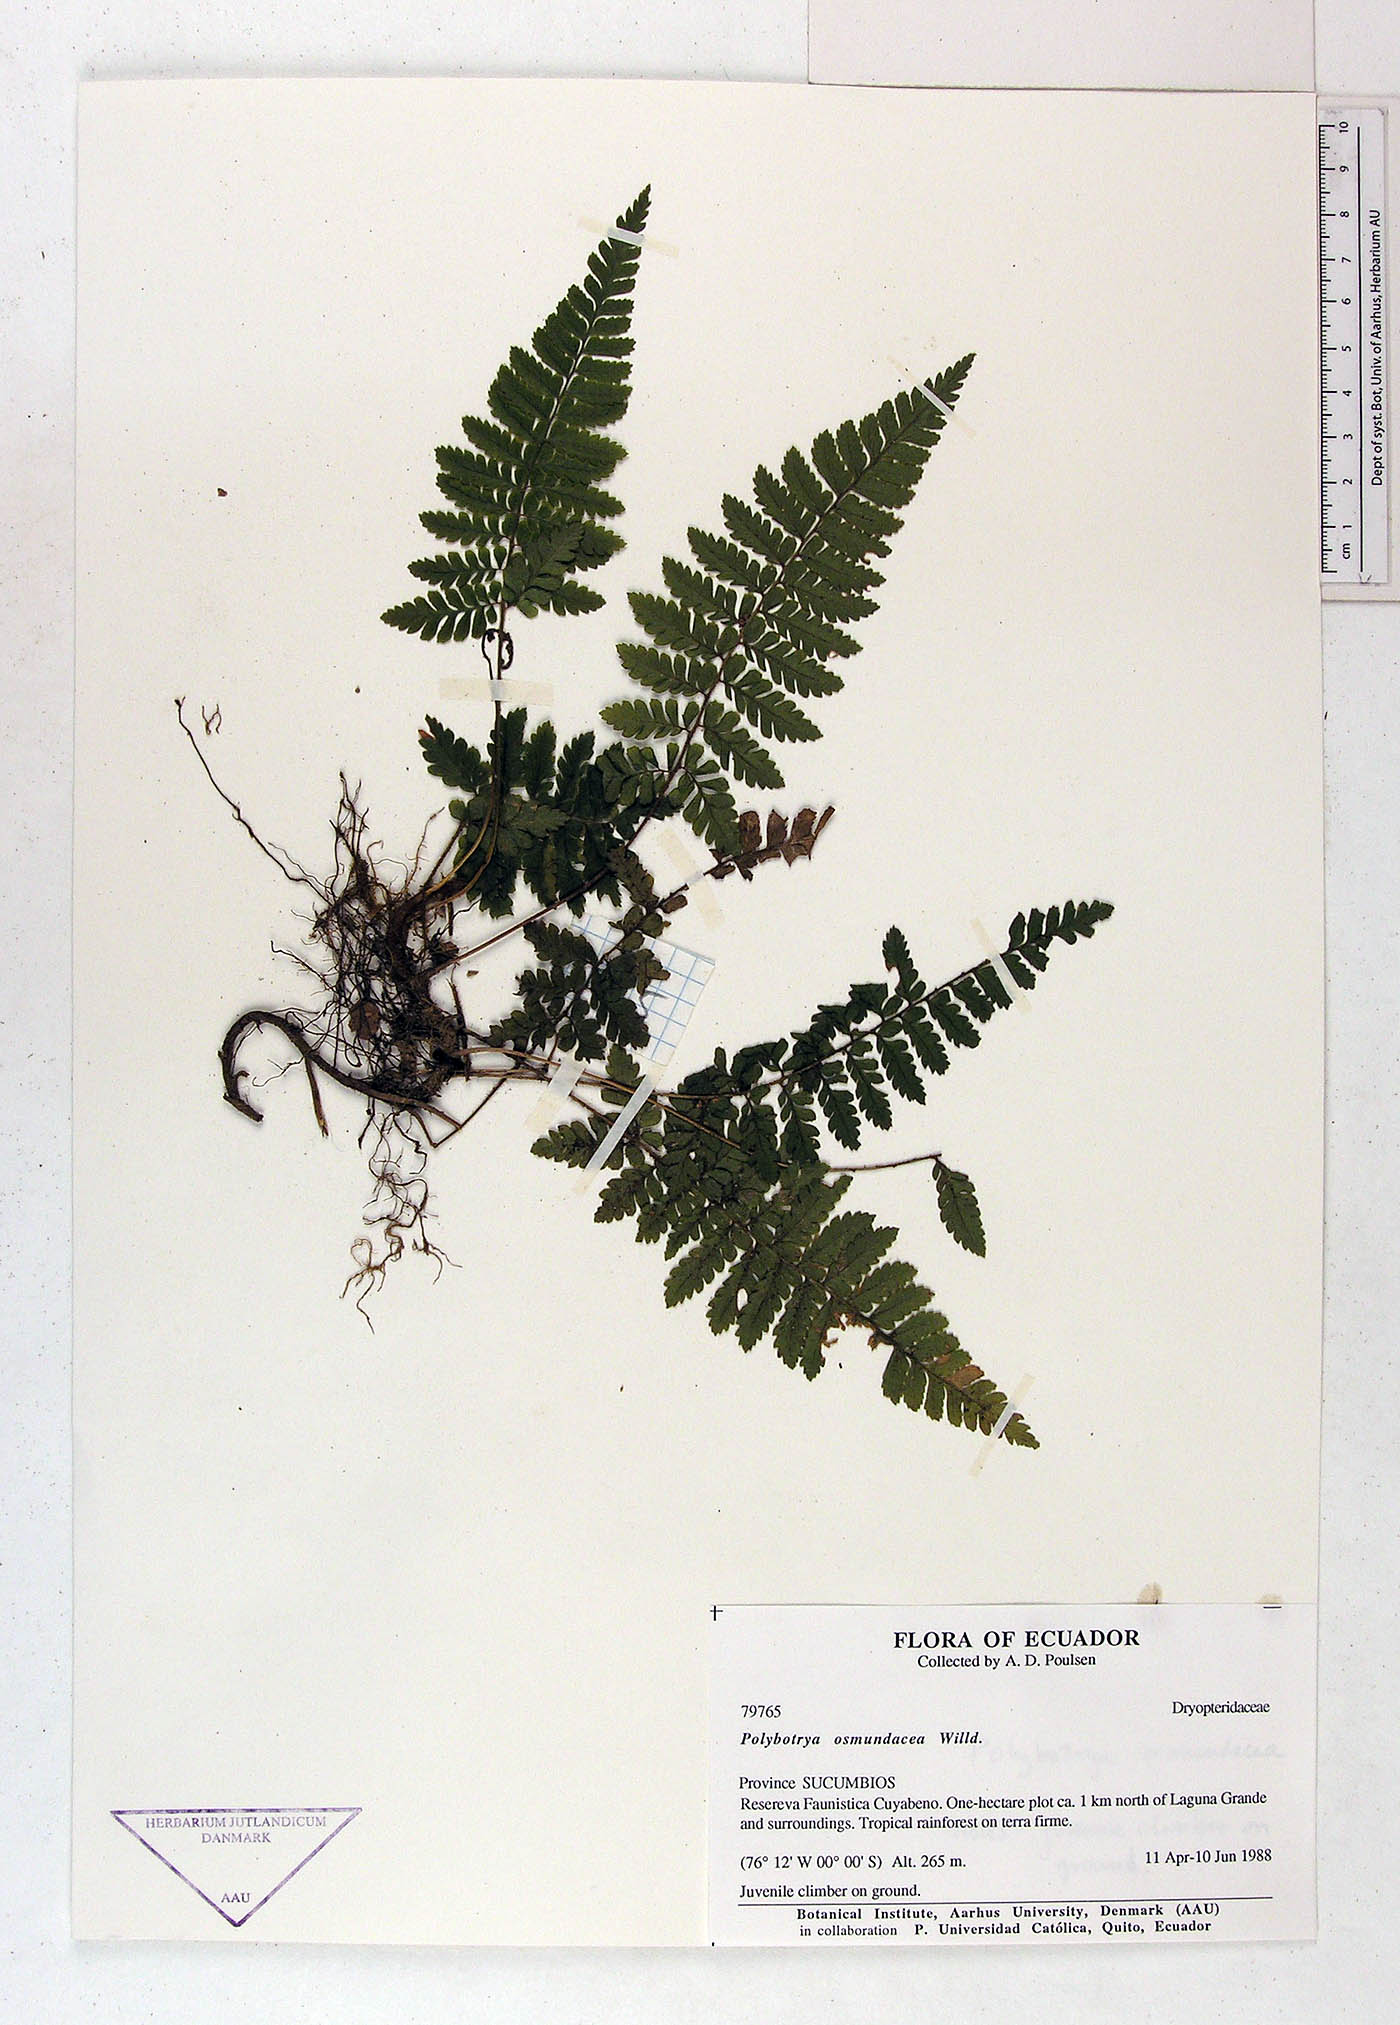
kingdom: Plantae
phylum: Tracheophyta
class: Polypodiopsida
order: Polypodiales
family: Dryopteridaceae
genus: Polybotrya
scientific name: Polybotrya osmundacea
